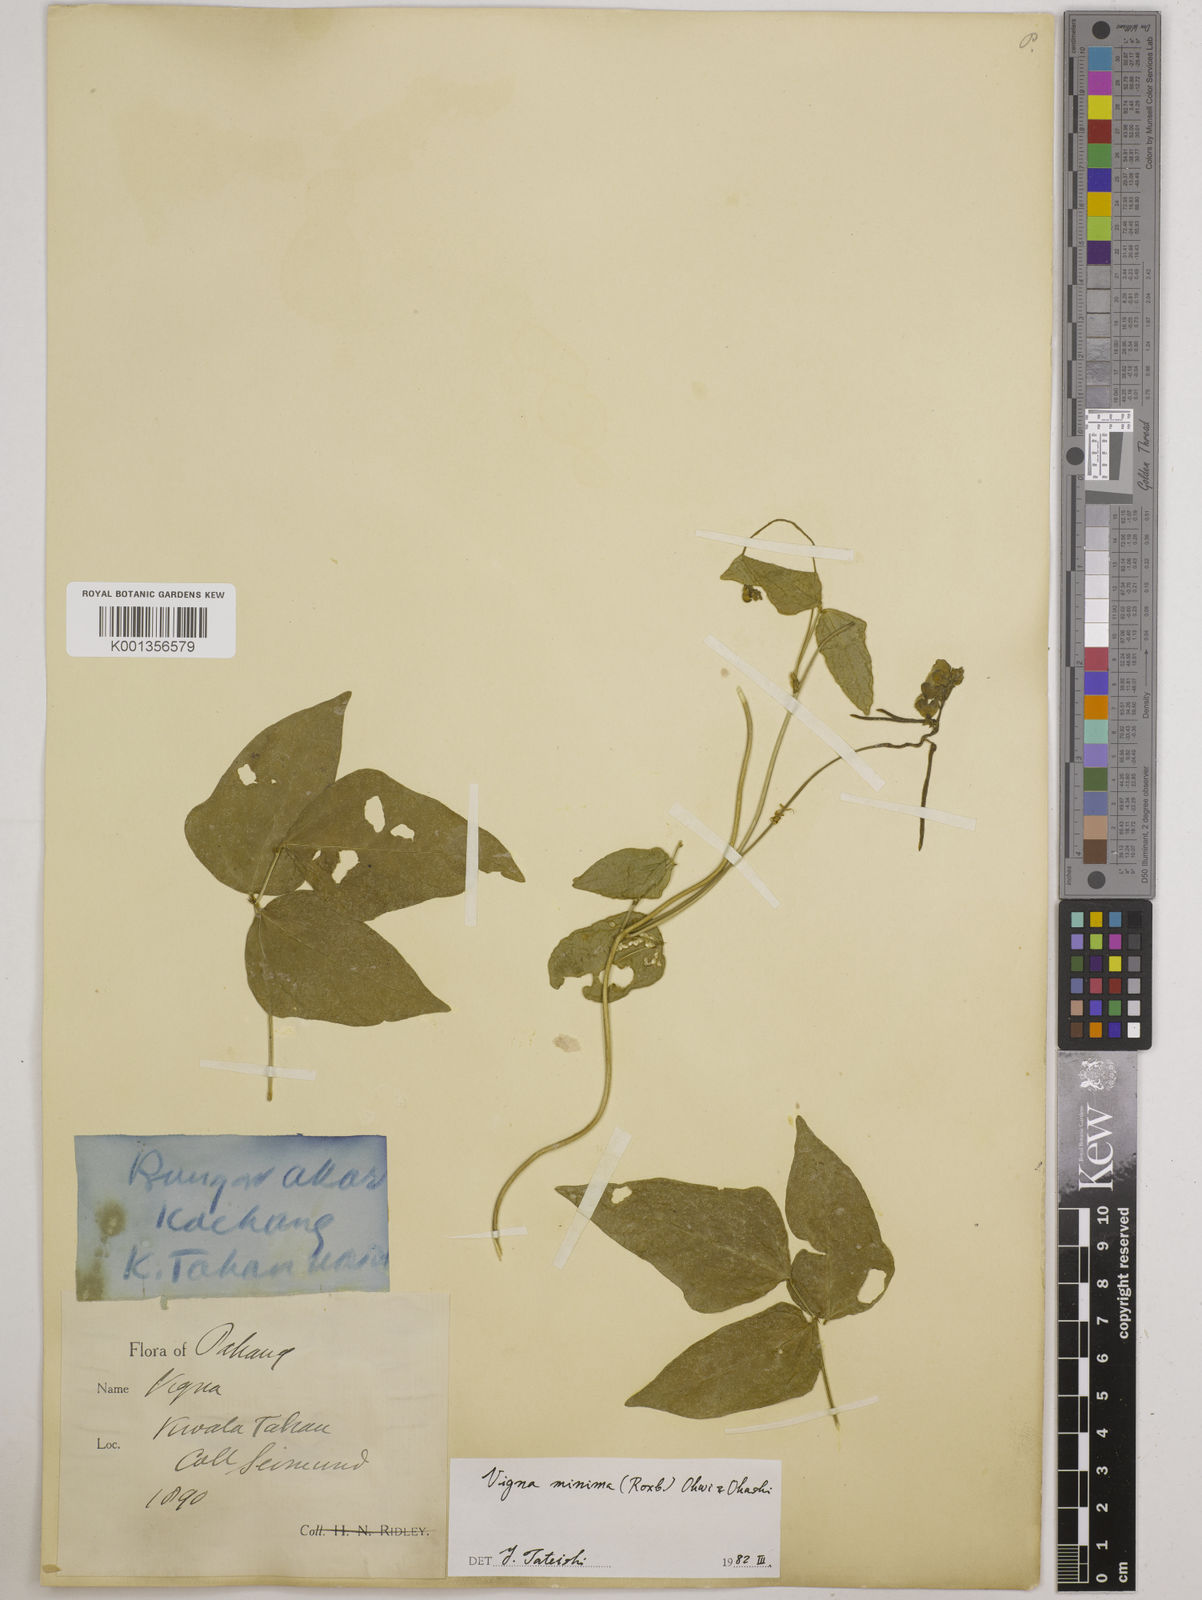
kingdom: Plantae
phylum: Tracheophyta
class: Magnoliopsida
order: Fabales
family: Fabaceae
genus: Vigna
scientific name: Vigna minima
